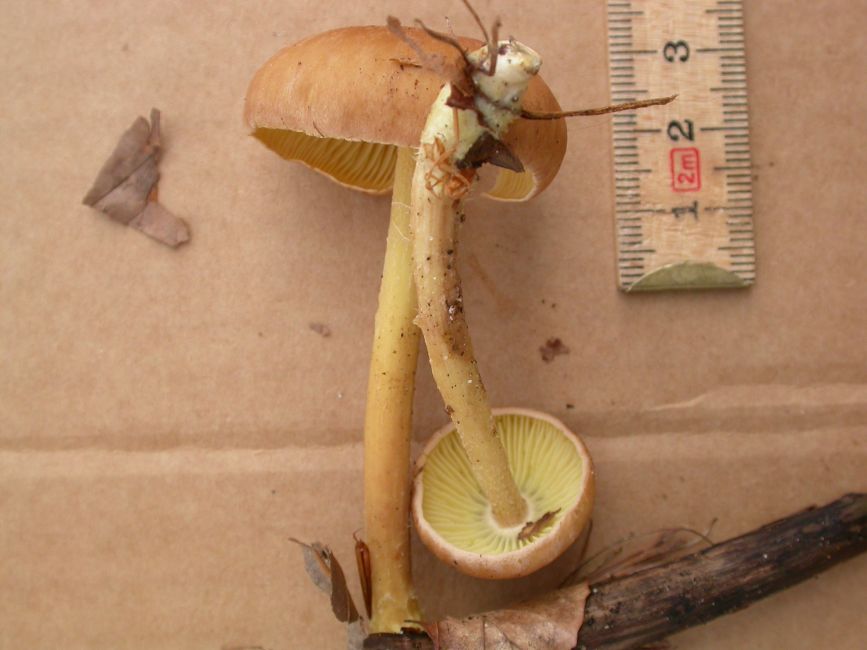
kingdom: Fungi
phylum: Basidiomycota
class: Agaricomycetes
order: Agaricales
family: Omphalotaceae
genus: Collybiopsis
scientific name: Collybiopsis peronata
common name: bestøvlet fladhat
